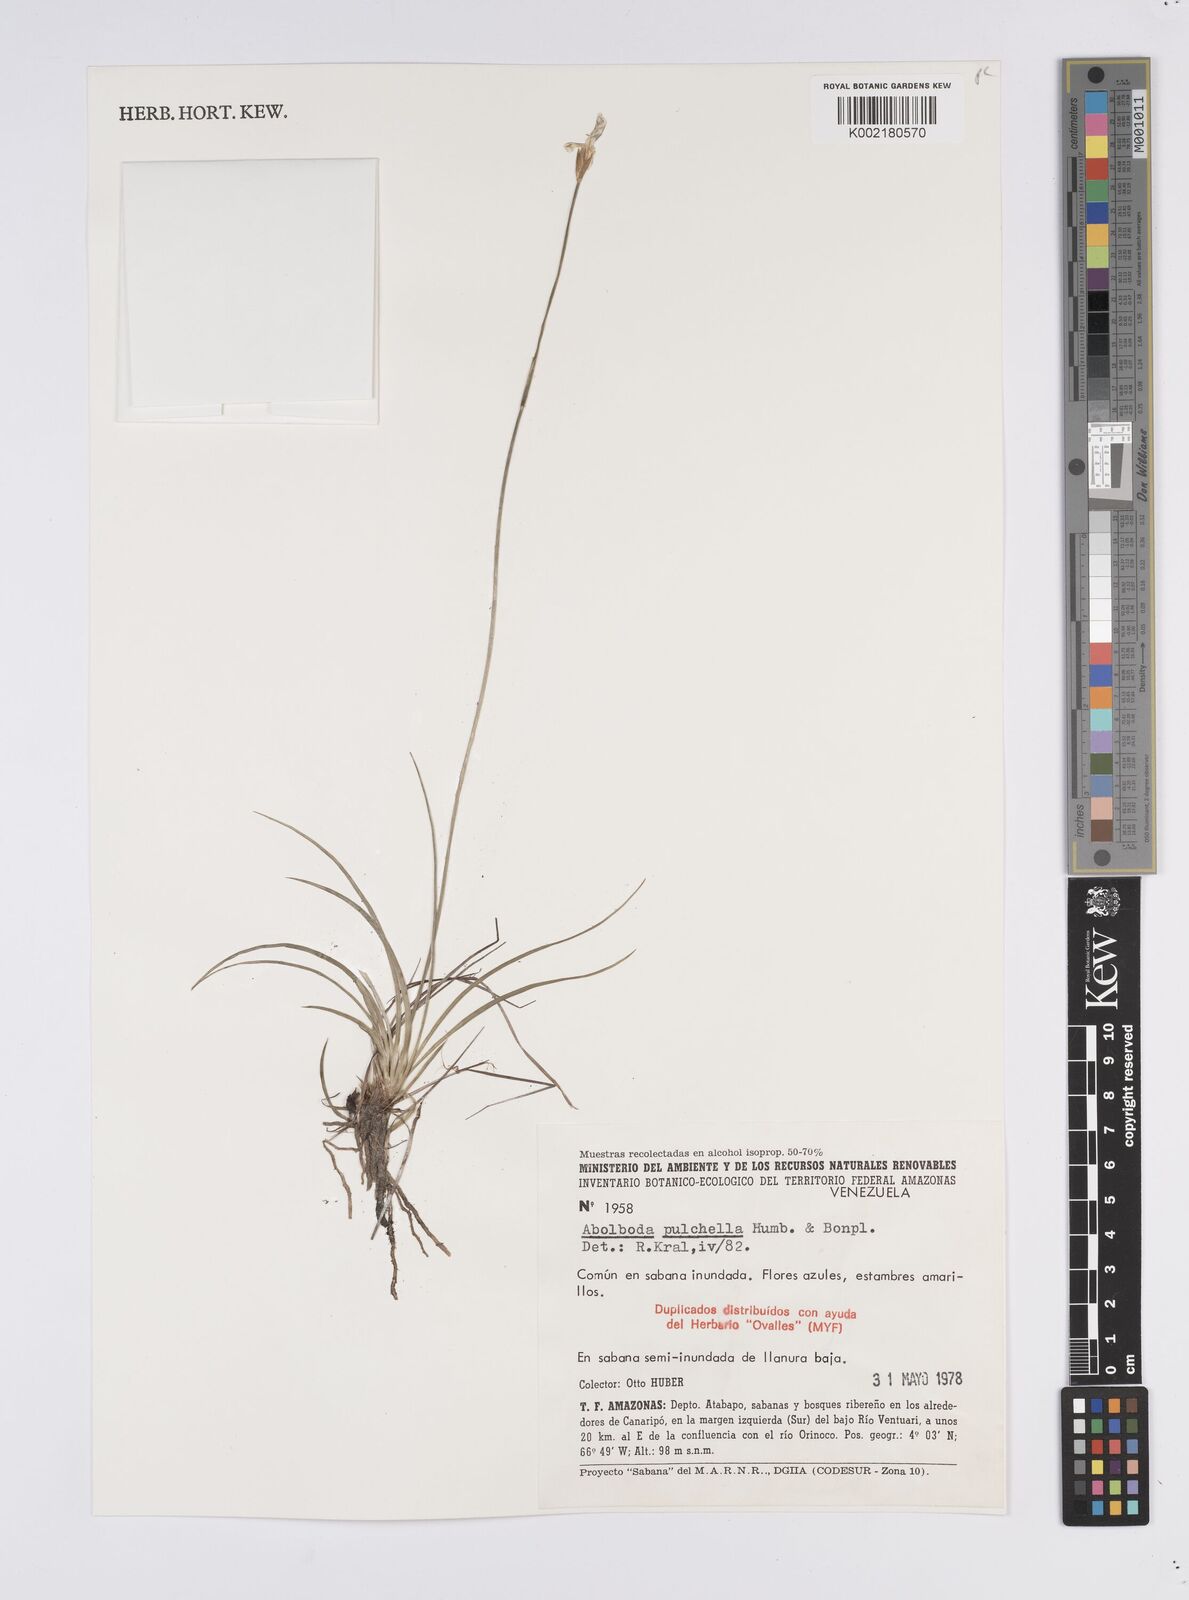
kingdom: Plantae
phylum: Tracheophyta
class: Liliopsida
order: Poales
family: Xyridaceae
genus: Abolboda
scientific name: Abolboda pulchella
